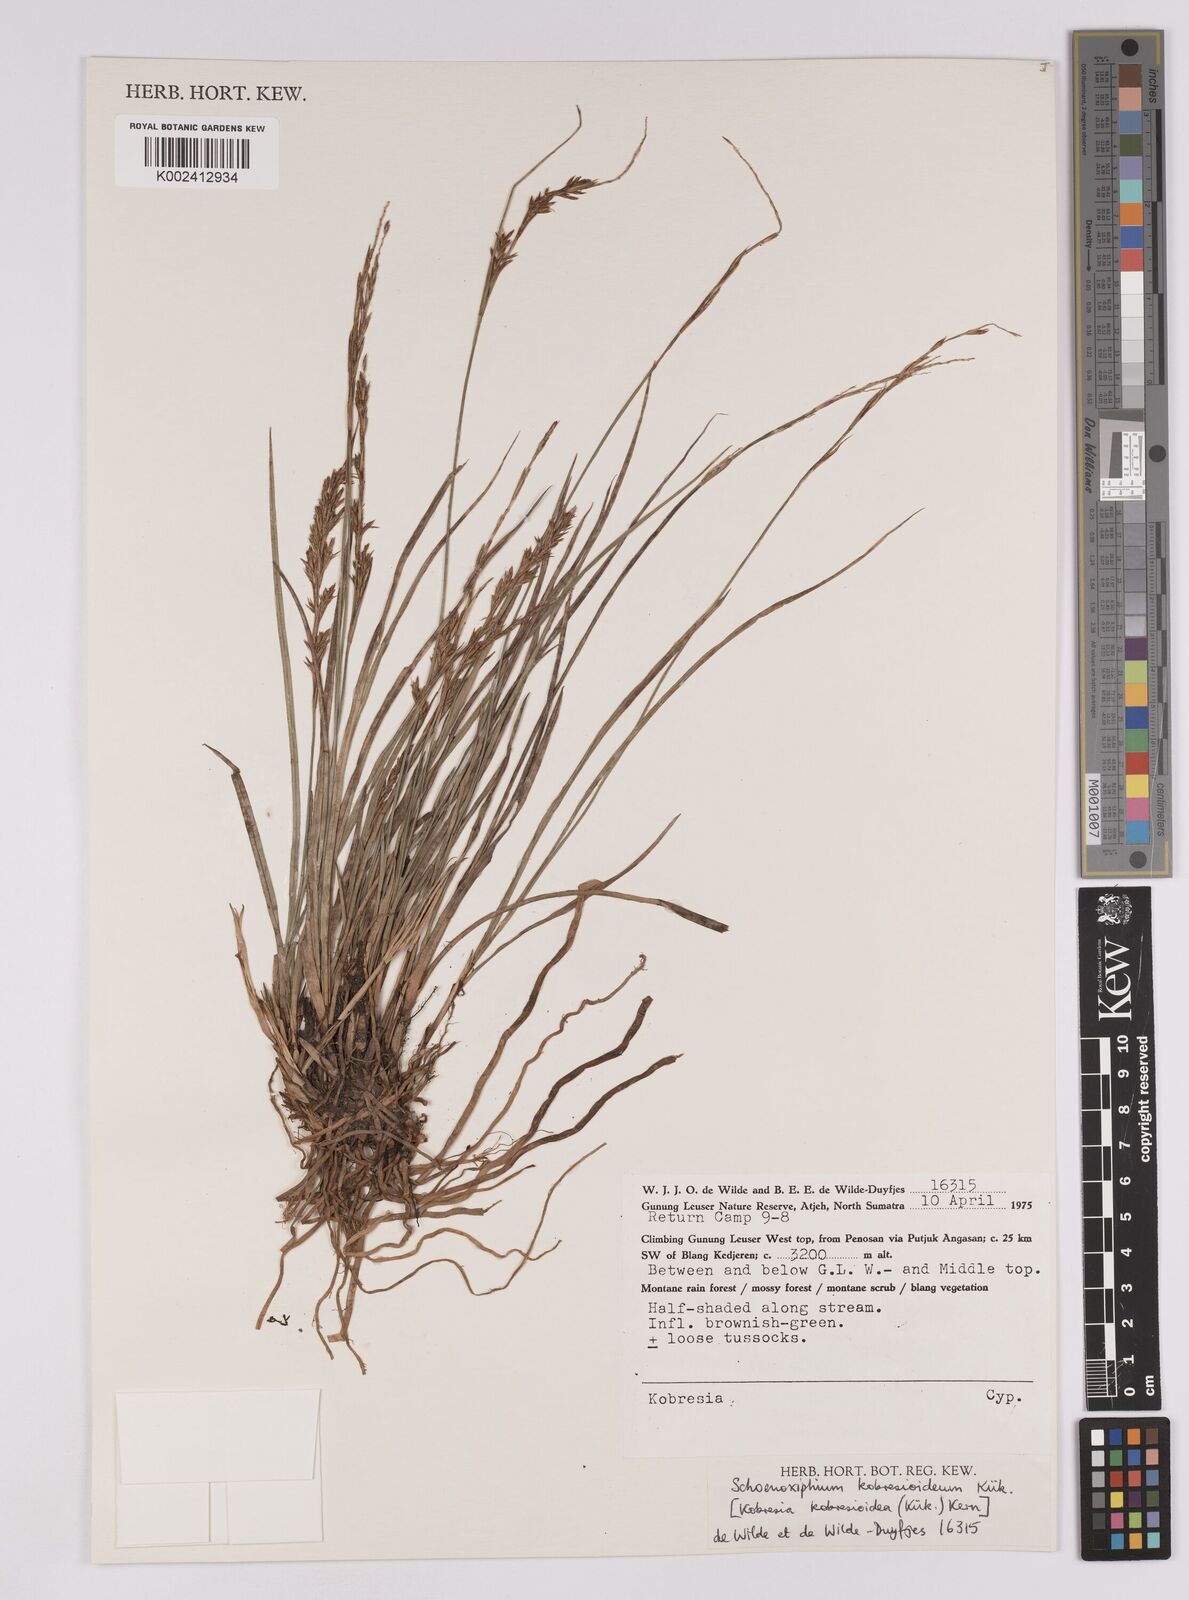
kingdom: Plantae
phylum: Tracheophyta
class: Liliopsida
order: Poales
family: Cyperaceae
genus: Carex
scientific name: Carex kobresioidea
